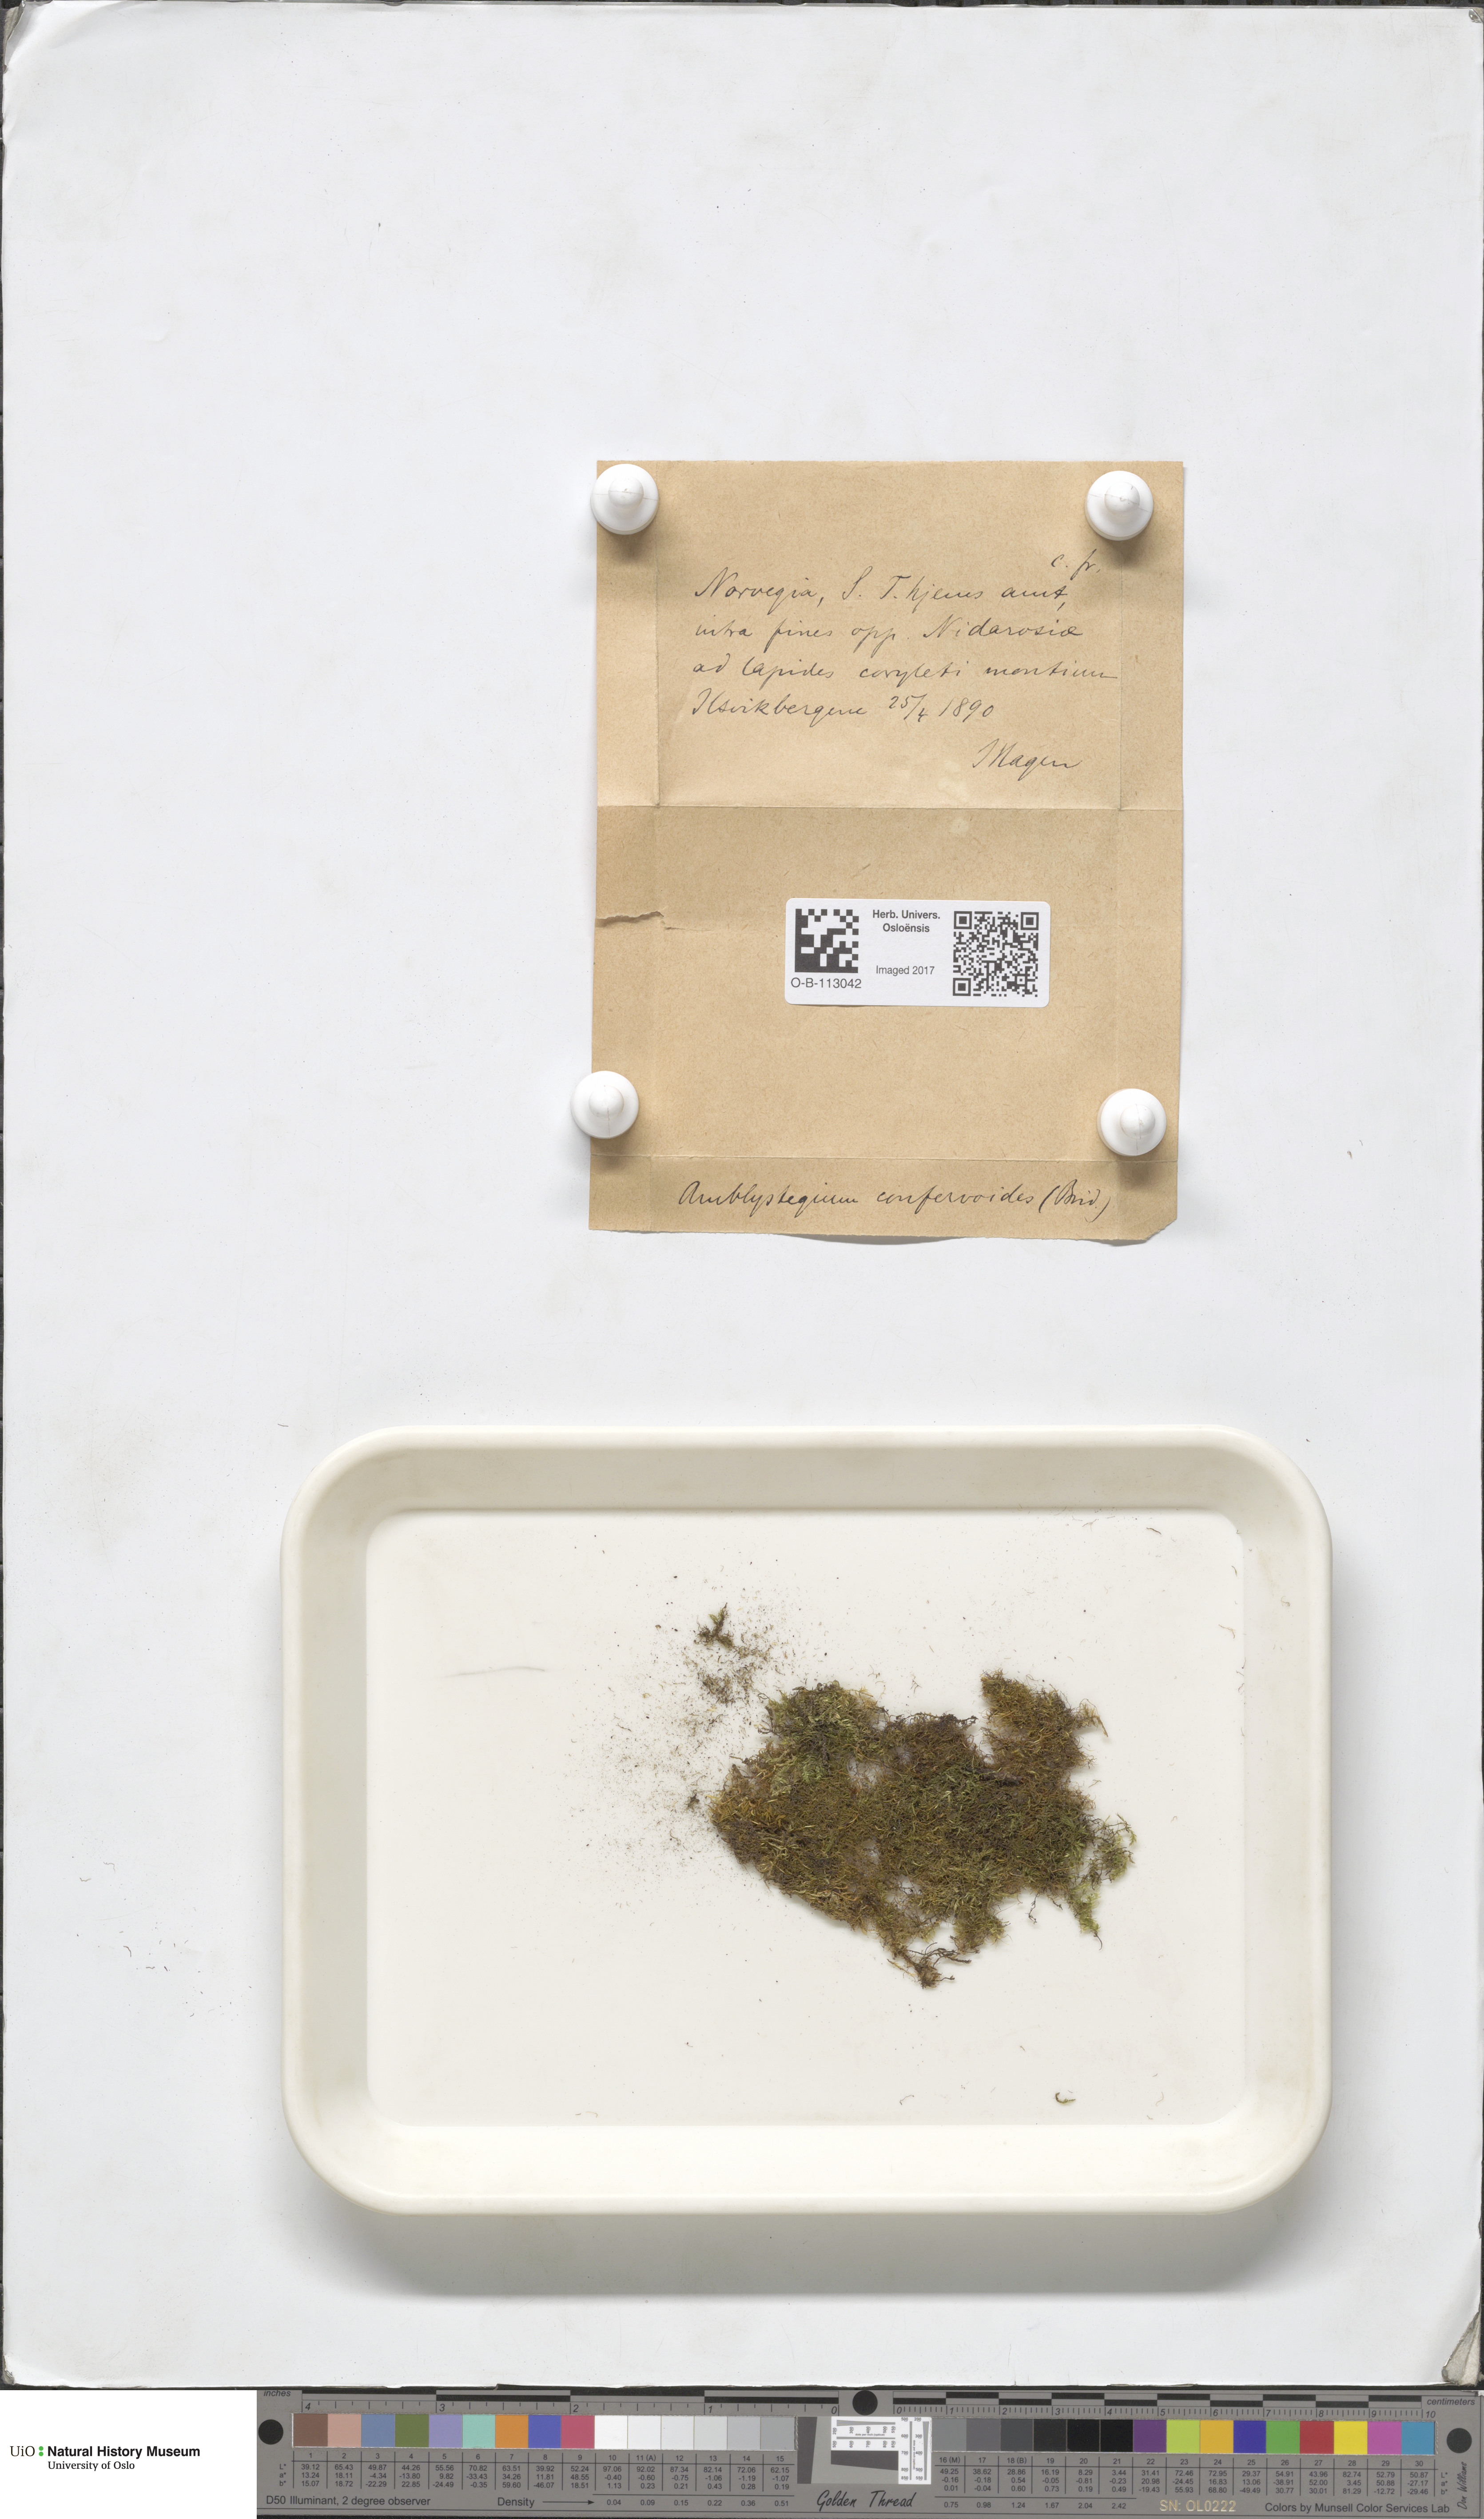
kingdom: Plantae
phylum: Bryophyta
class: Bryopsida
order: Hypnales
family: Amblystegiaceae
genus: Serpoleskea
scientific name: Serpoleskea confervoides
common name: Alga-like matted-moss
